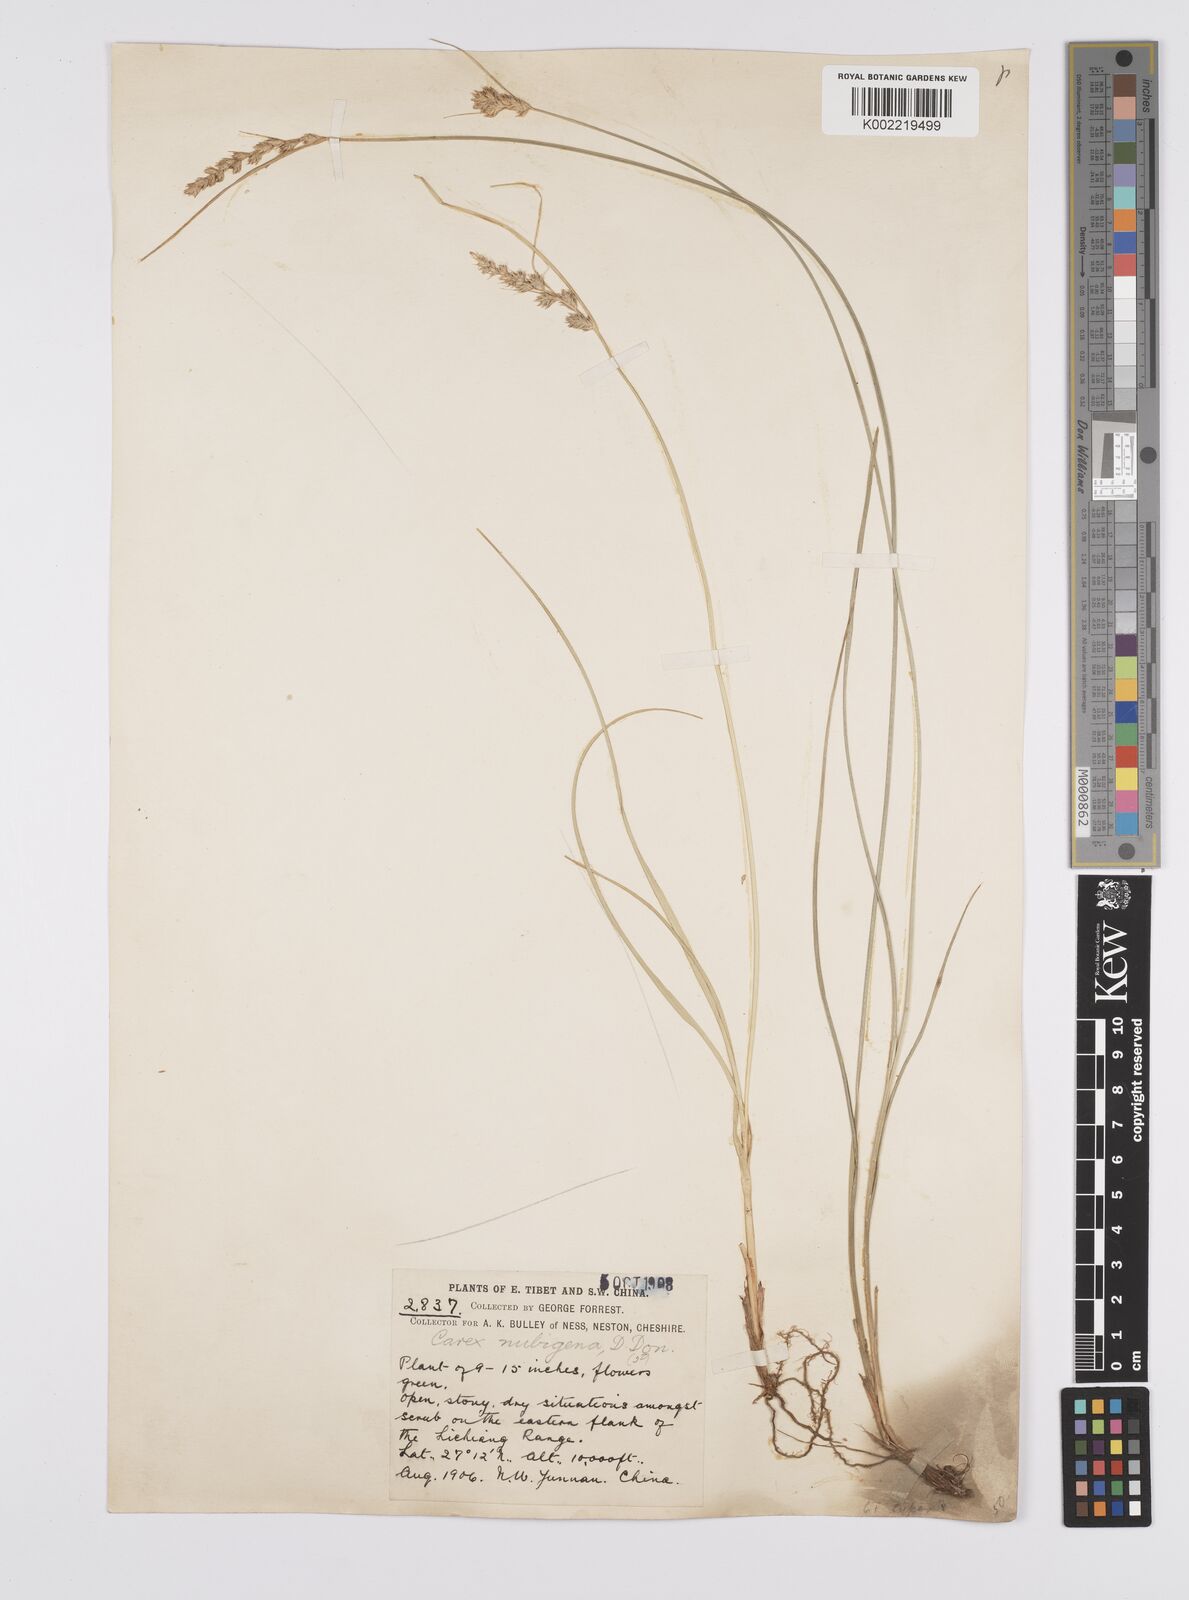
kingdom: Plantae
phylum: Tracheophyta
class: Liliopsida
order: Poales
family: Cyperaceae
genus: Carex
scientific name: Carex nubigena
